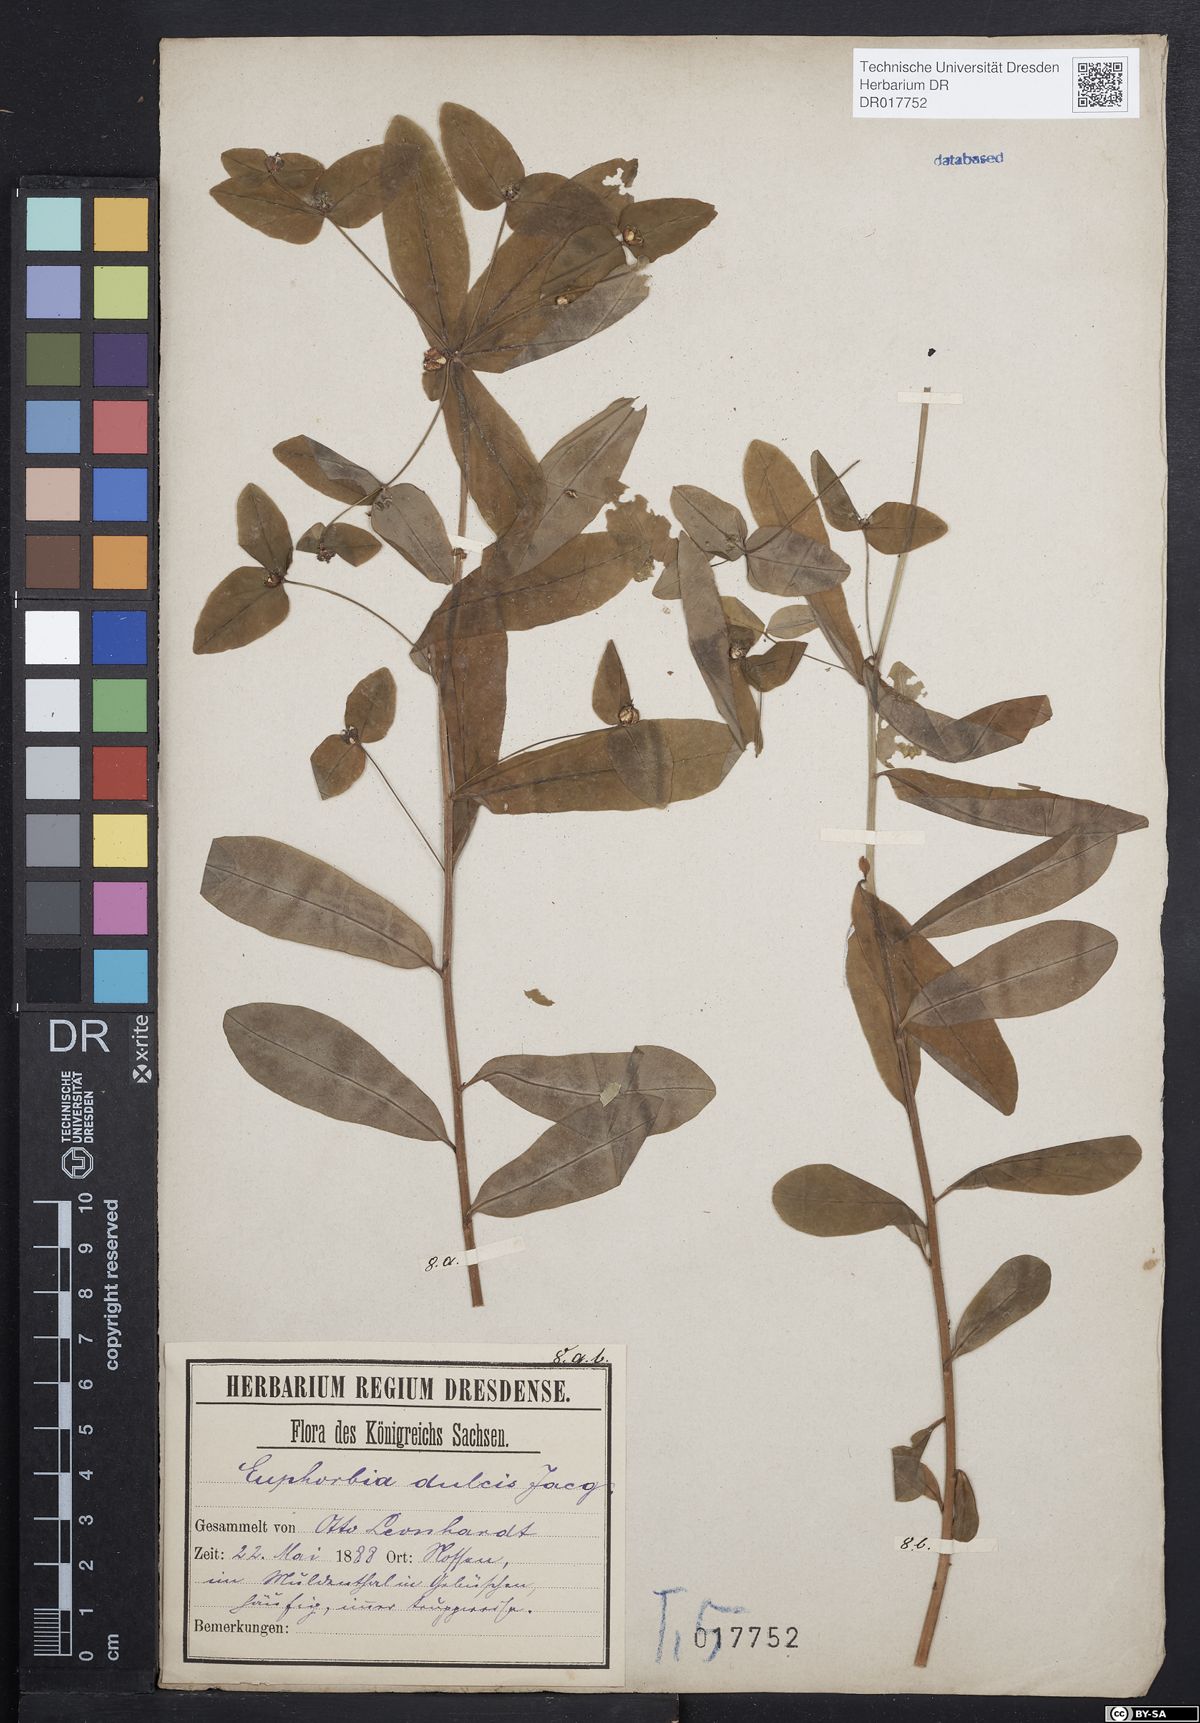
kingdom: Plantae
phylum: Tracheophyta
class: Magnoliopsida
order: Malpighiales
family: Euphorbiaceae
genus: Euphorbia
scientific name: Euphorbia dulcis
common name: Sweet spurge
